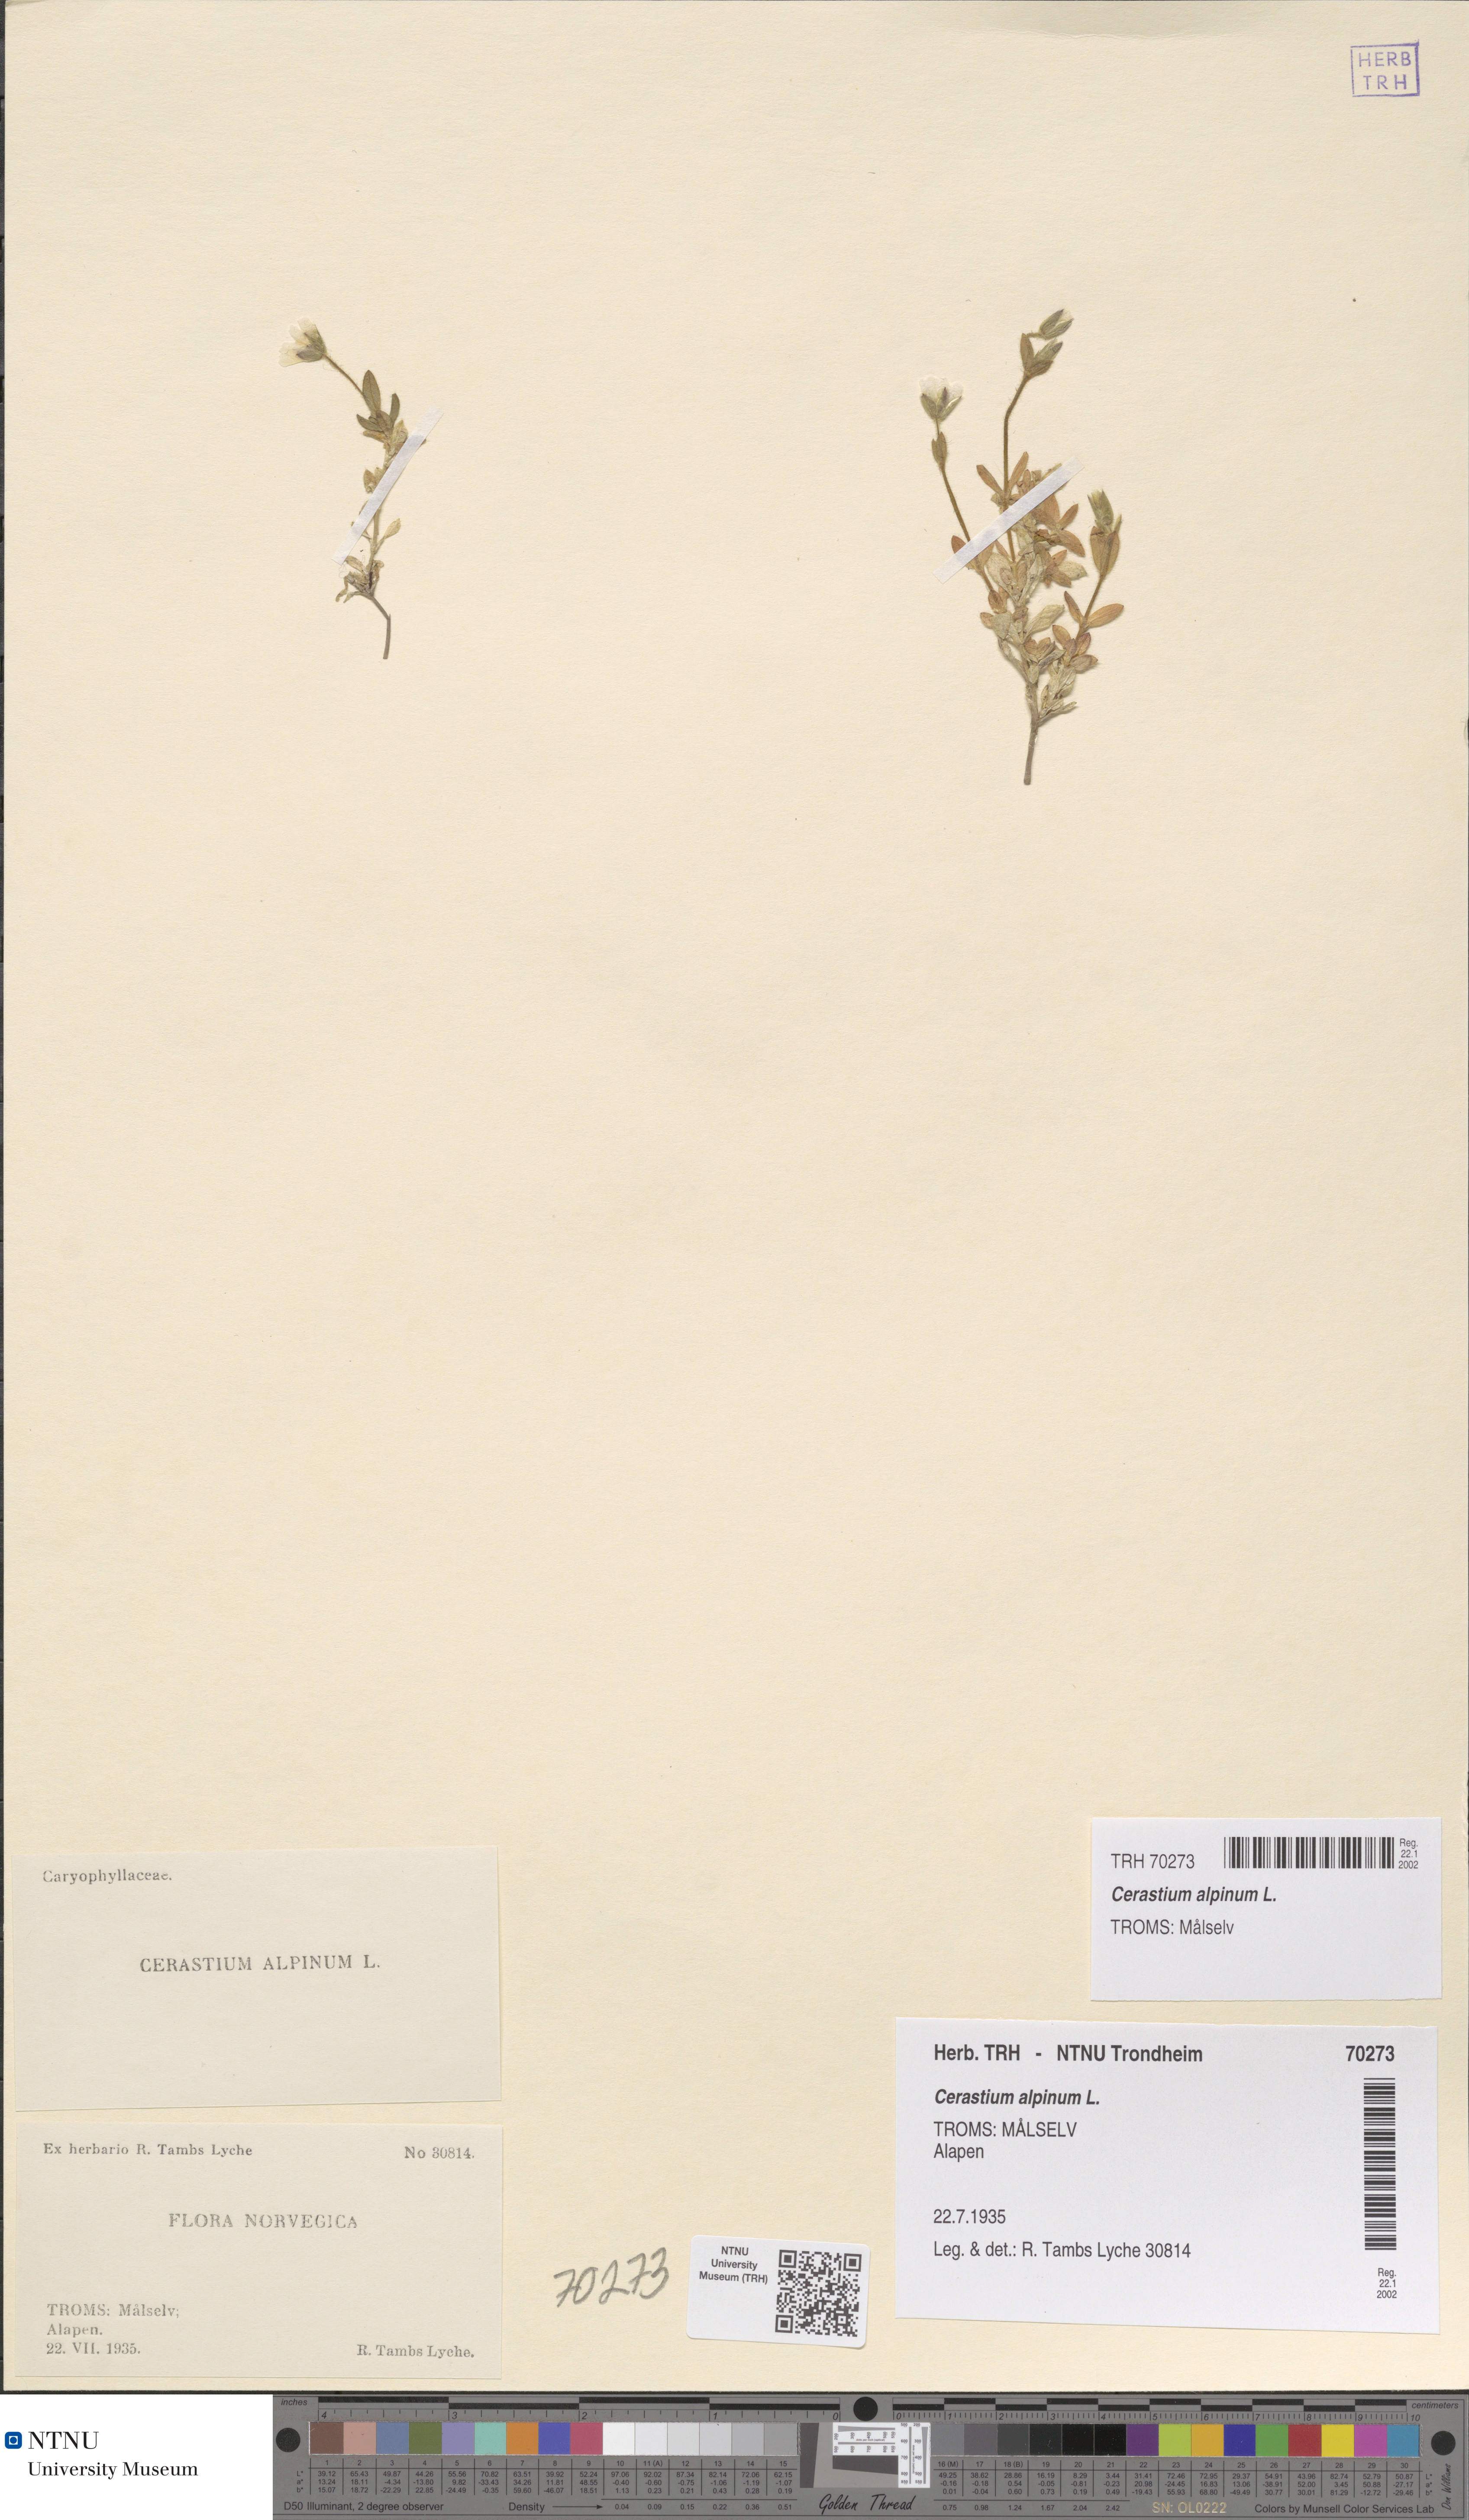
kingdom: Plantae
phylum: Tracheophyta
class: Magnoliopsida
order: Caryophyllales
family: Caryophyllaceae
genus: Cerastium
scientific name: Cerastium alpinum
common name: Alpine mouse-ear
